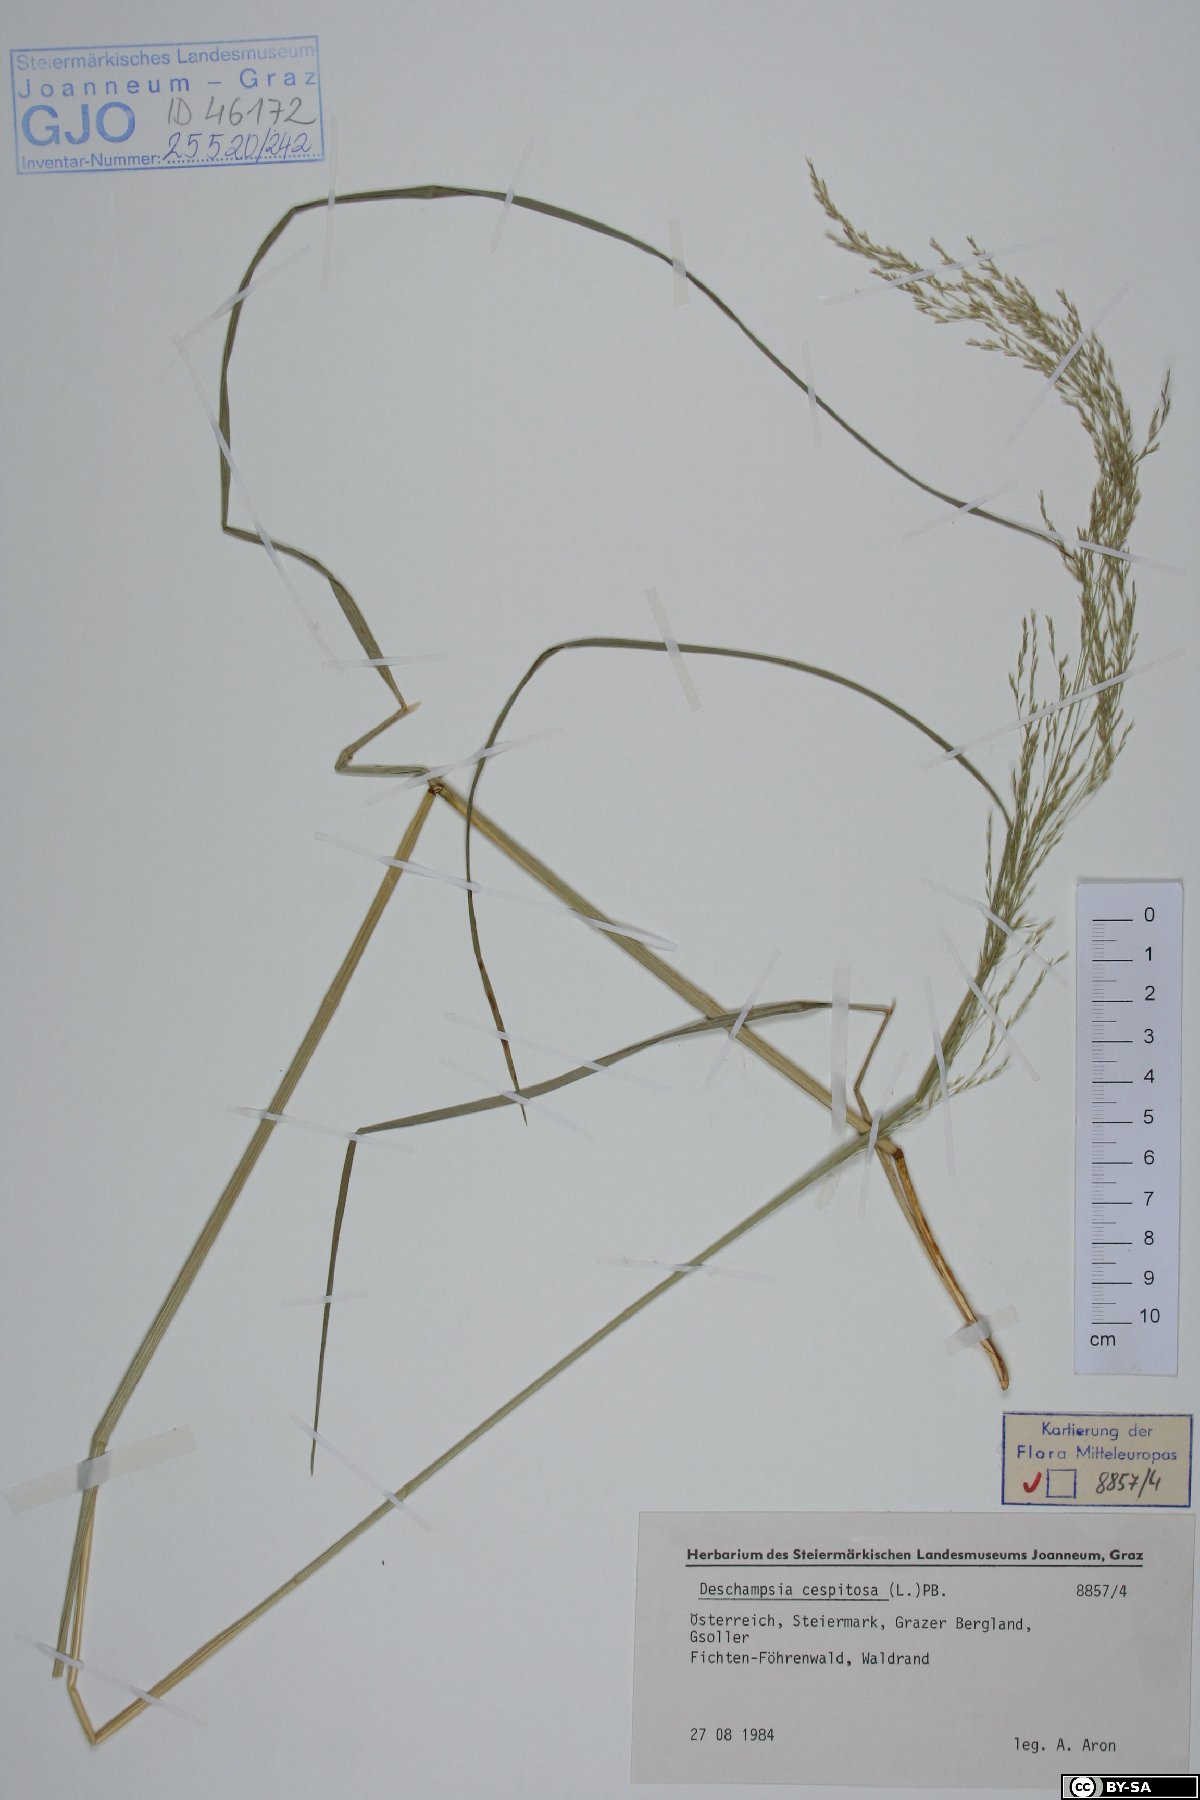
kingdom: Plantae
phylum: Tracheophyta
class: Liliopsida
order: Poales
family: Poaceae
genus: Deschampsia
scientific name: Deschampsia cespitosa
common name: Tufted hair-grass
